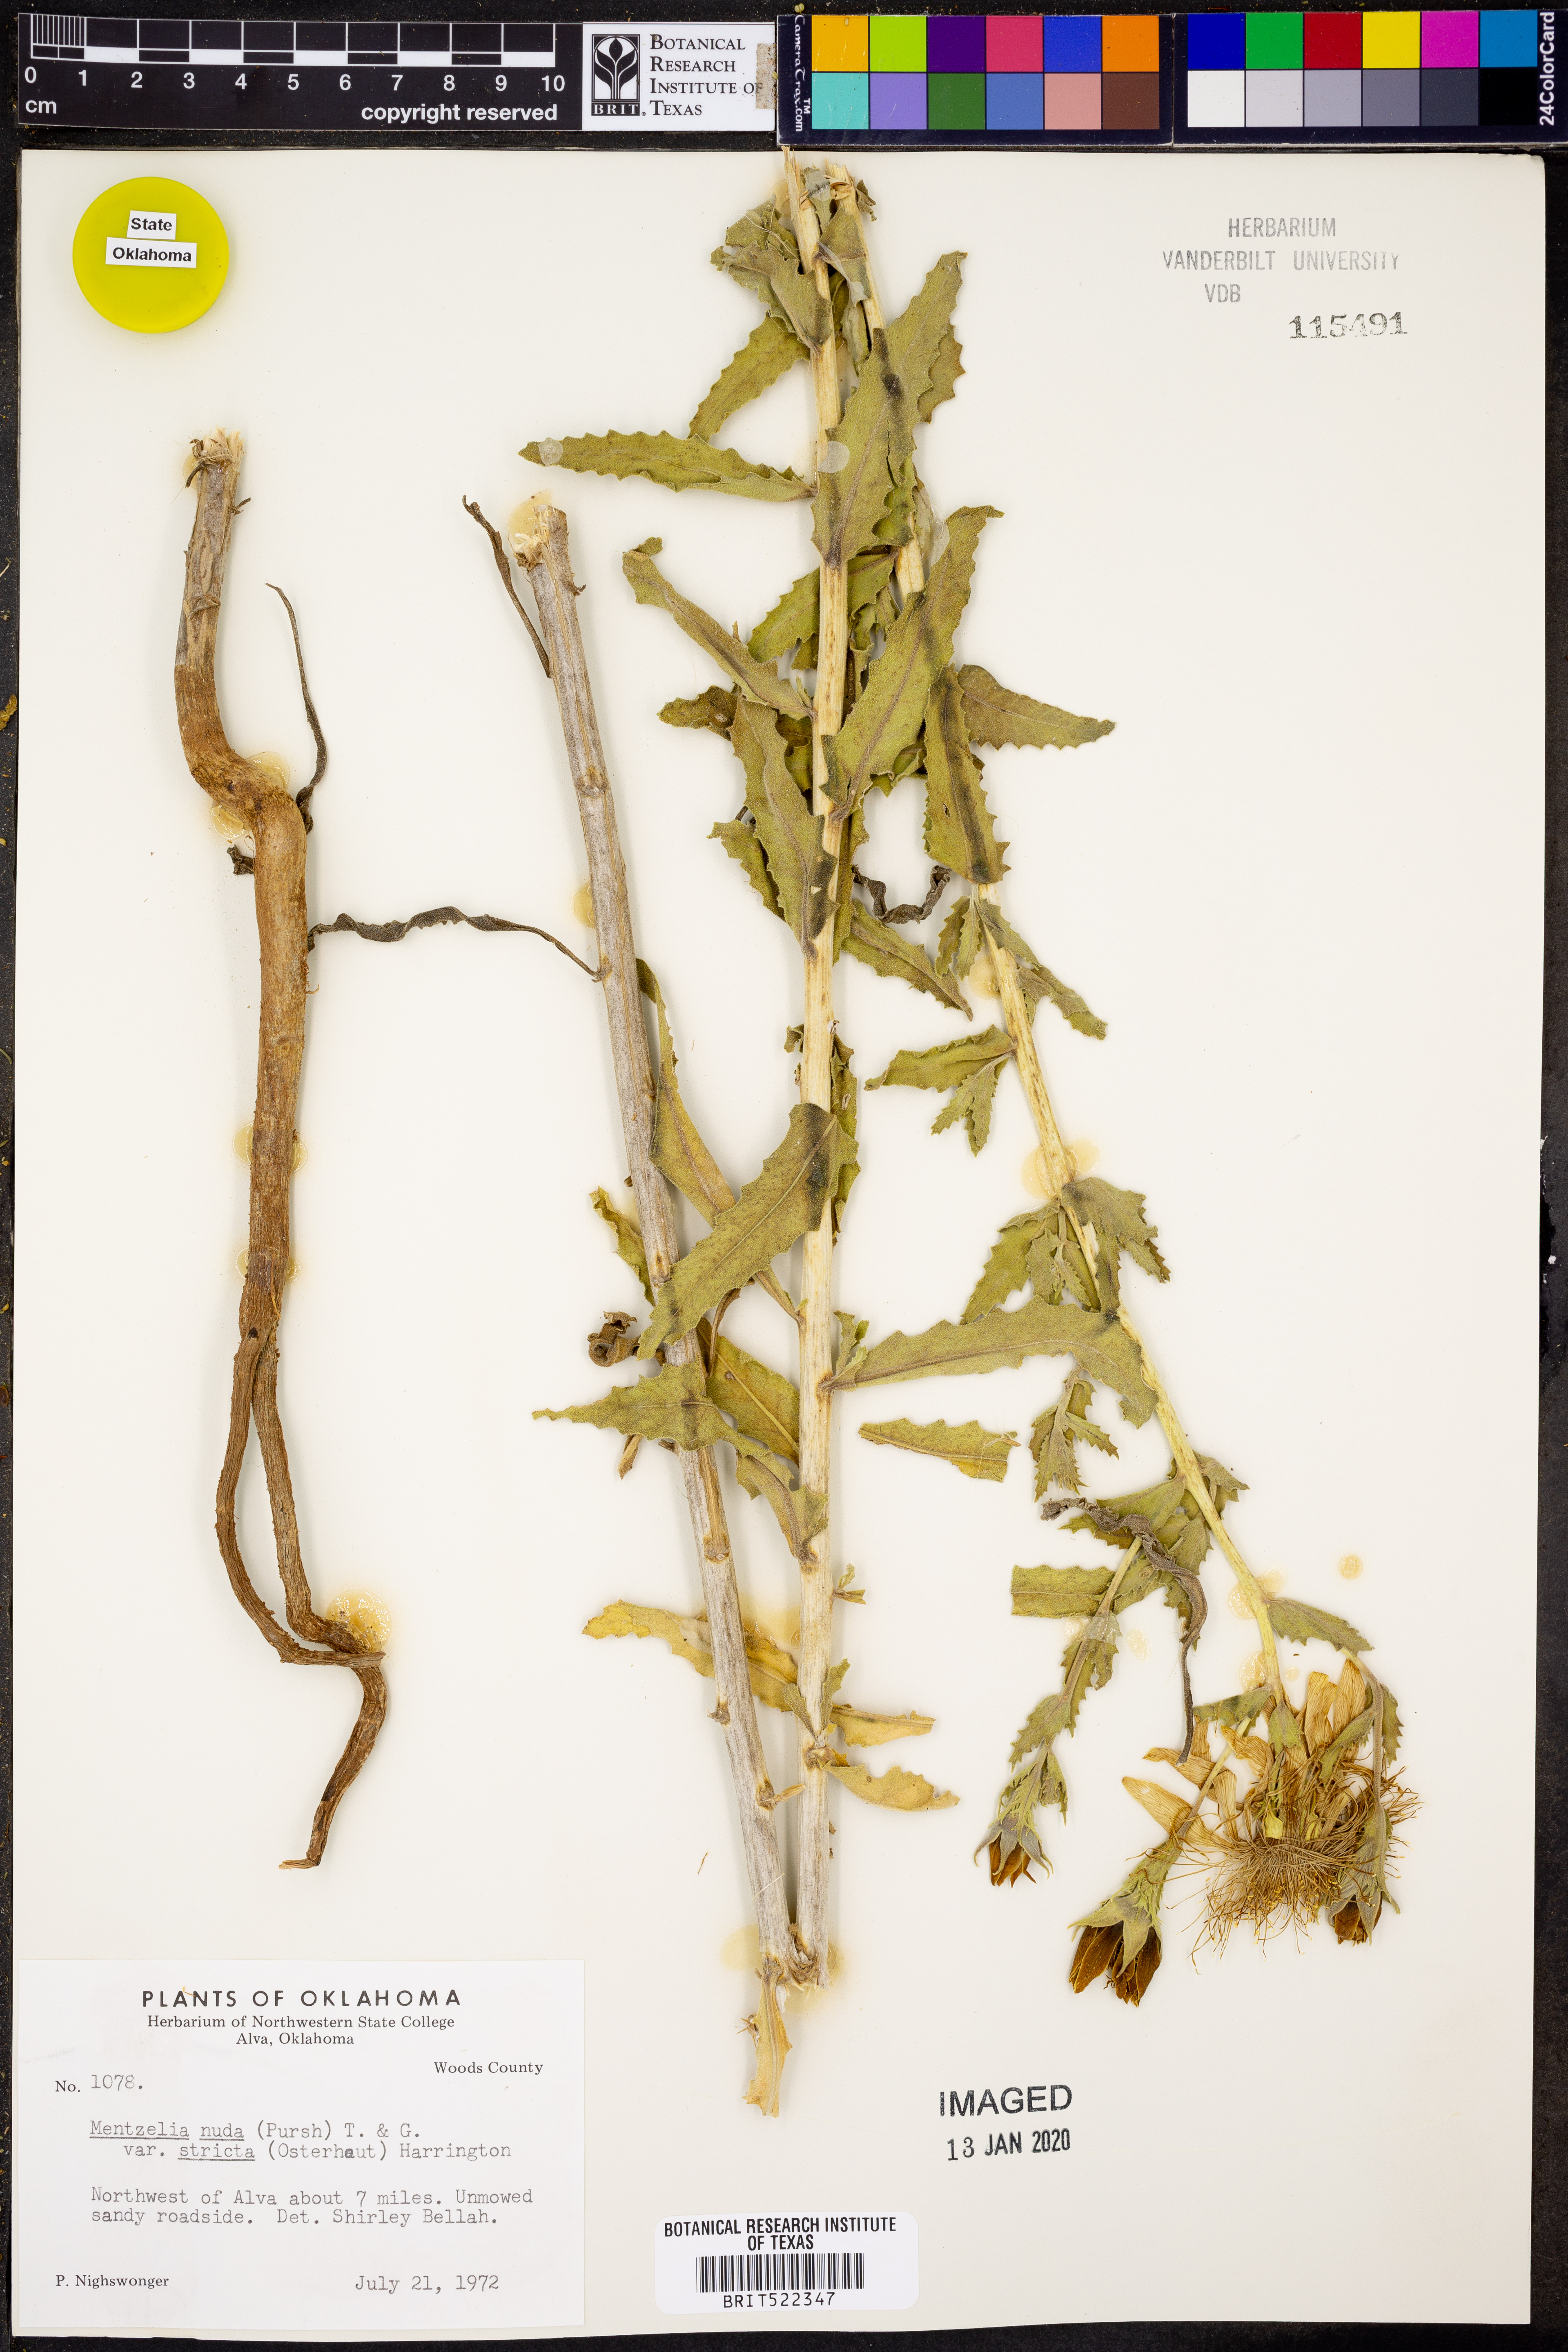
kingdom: Plantae
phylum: Tracheophyta
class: Magnoliopsida
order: Cornales
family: Loasaceae
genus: Mentzelia
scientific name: Mentzelia nuda
